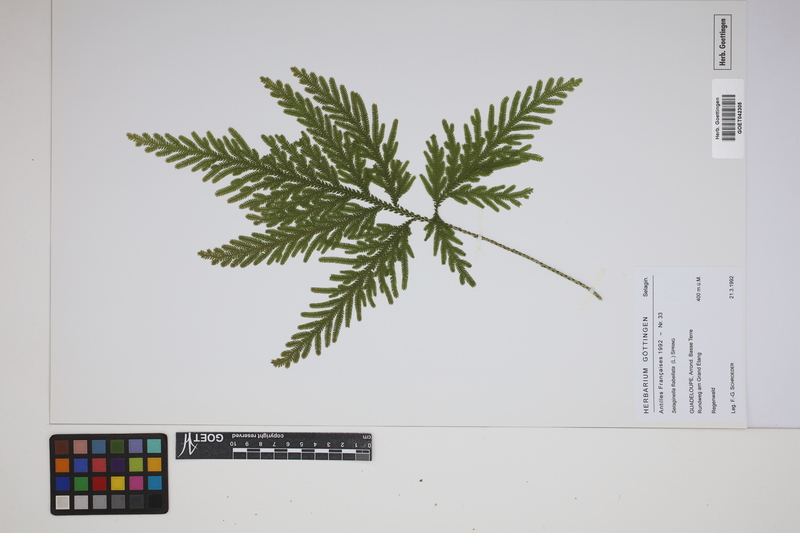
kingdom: Plantae
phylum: Tracheophyta
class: Lycopodiopsida
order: Selaginellales
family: Selaginellaceae
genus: Selaginella
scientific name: Selaginella flabellata
